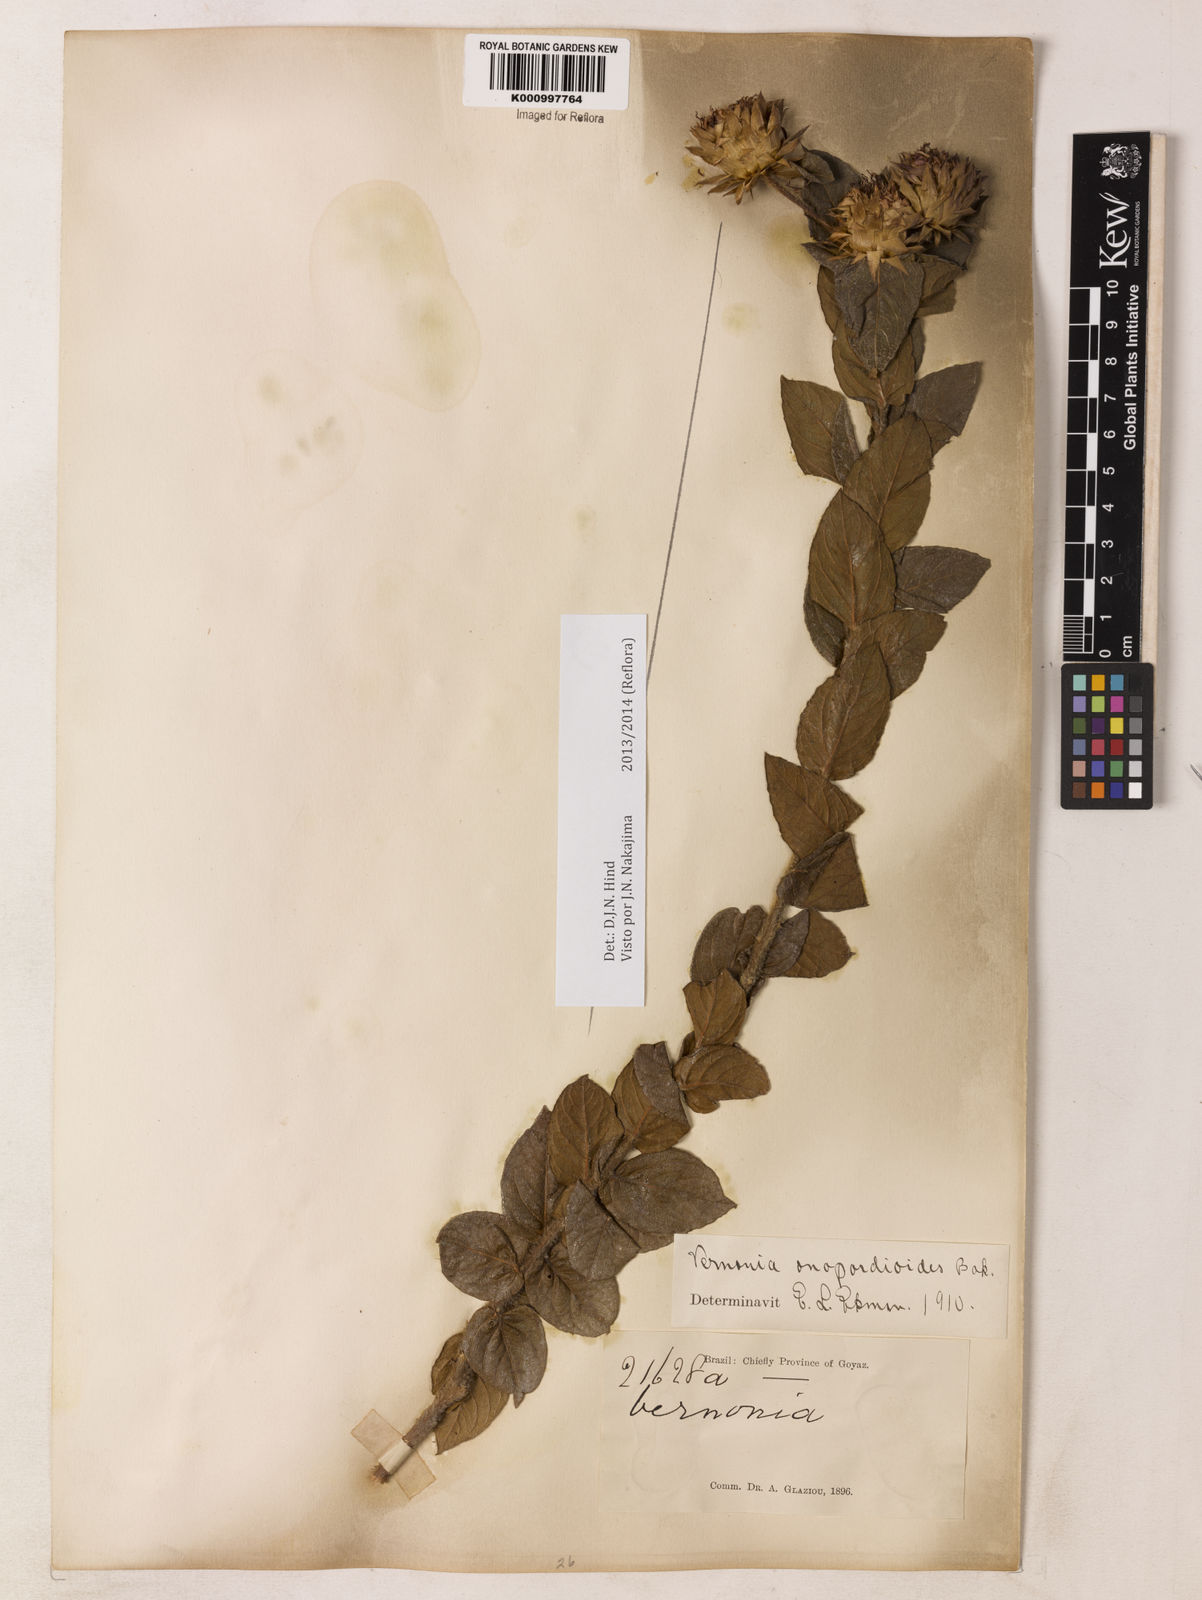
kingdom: Plantae
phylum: Tracheophyta
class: Magnoliopsida
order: Asterales
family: Asteraceae
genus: Lessingianthus
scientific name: Lessingianthus onopordioides
